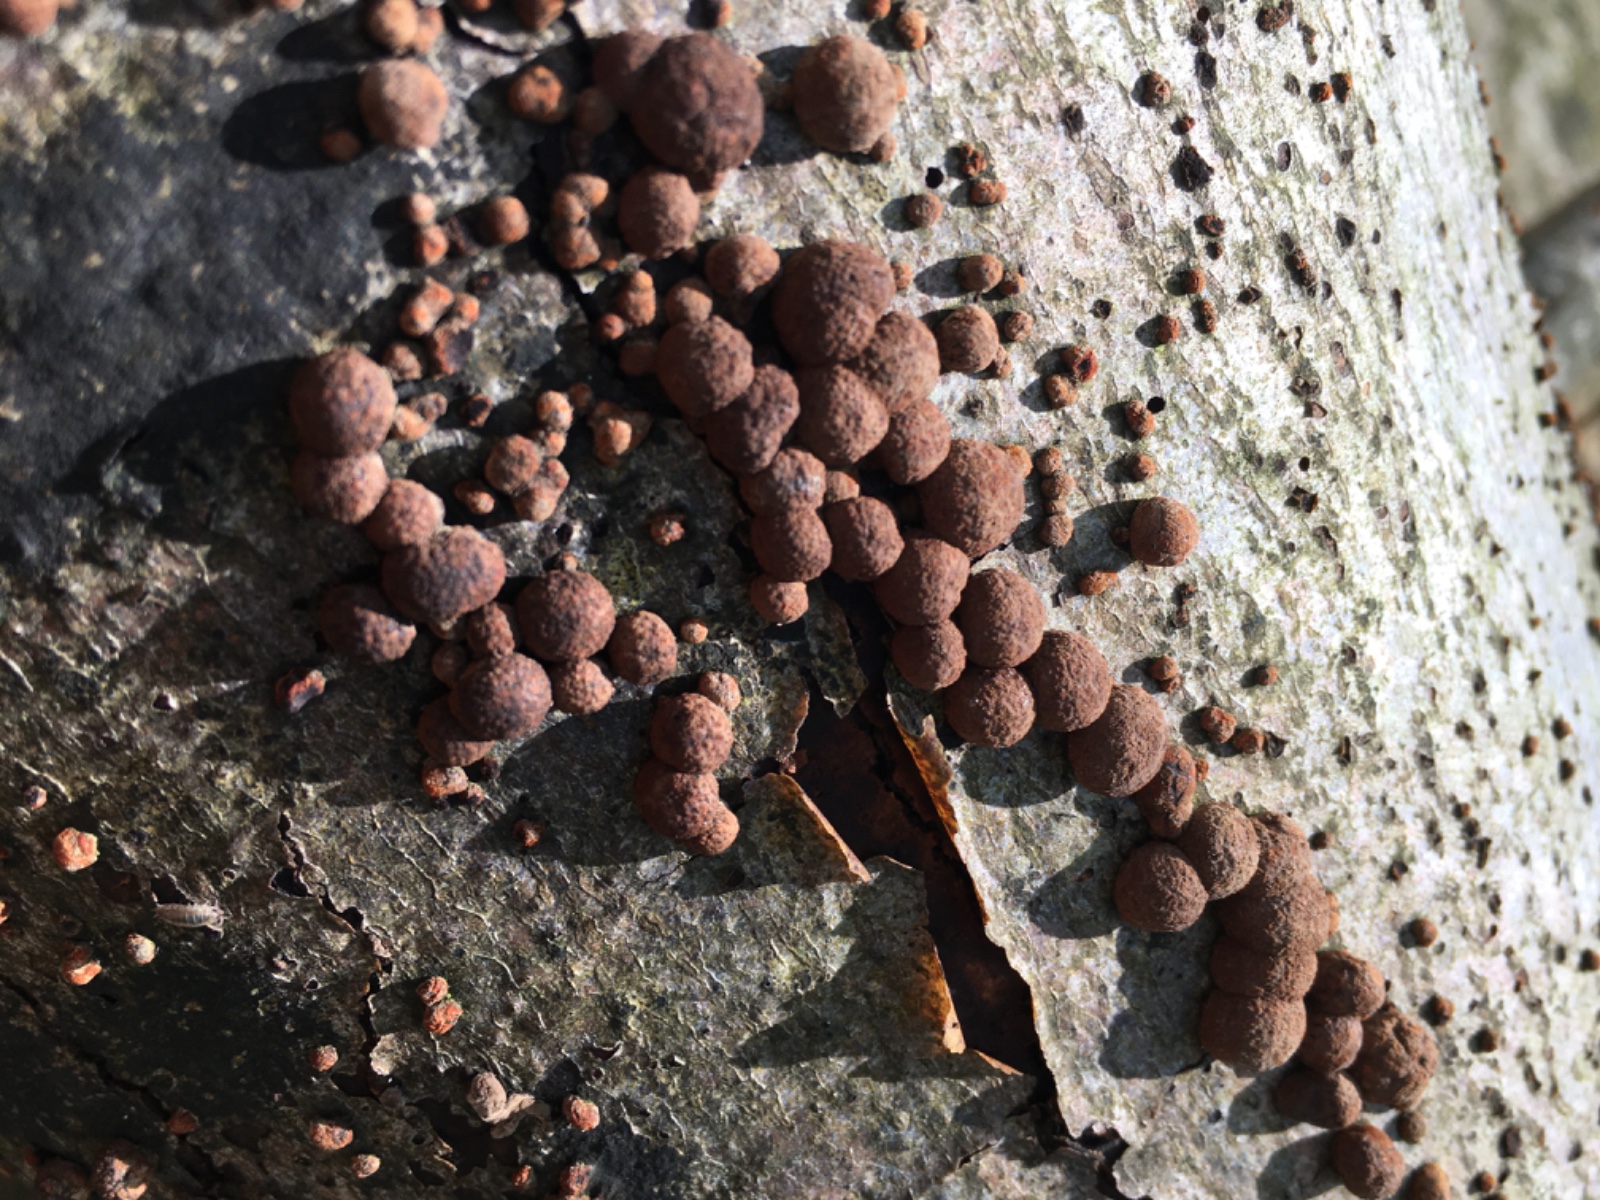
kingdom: Fungi
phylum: Ascomycota
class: Sordariomycetes
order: Xylariales
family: Hypoxylaceae
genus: Hypoxylon
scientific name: Hypoxylon fragiforme
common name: kuljordbær
